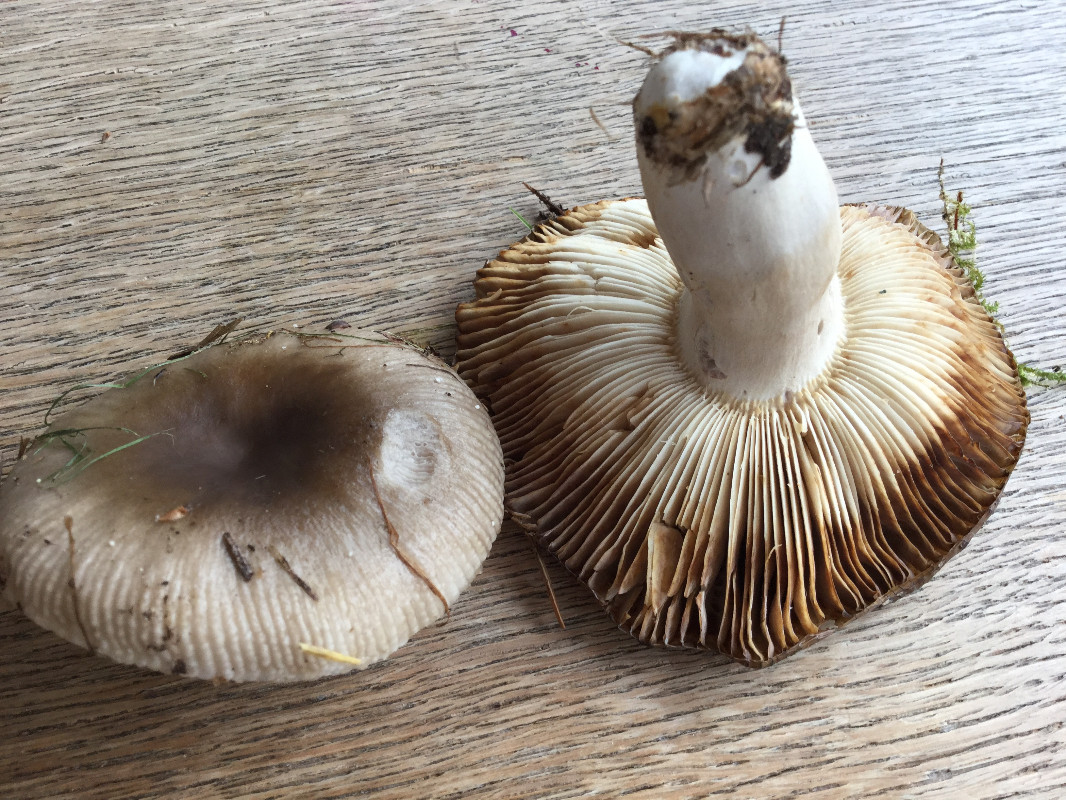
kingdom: Fungi
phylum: Basidiomycota
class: Agaricomycetes
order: Russulales
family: Russulaceae
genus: Russula
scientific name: Russula amoenolens
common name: skarp kam-skørhat
